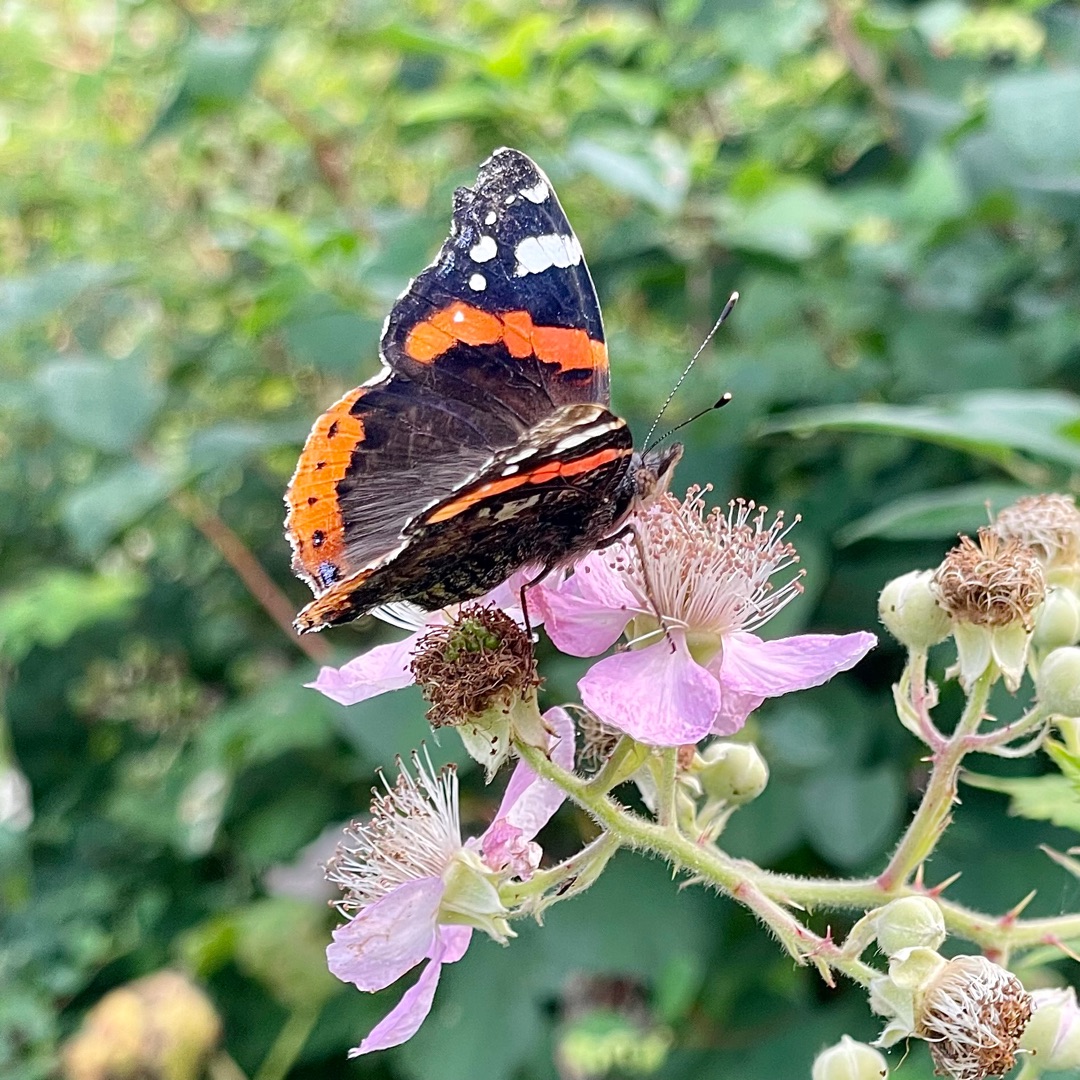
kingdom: Animalia
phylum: Arthropoda
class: Insecta
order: Lepidoptera
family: Nymphalidae
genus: Vanessa
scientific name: Vanessa atalanta
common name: Admiral
